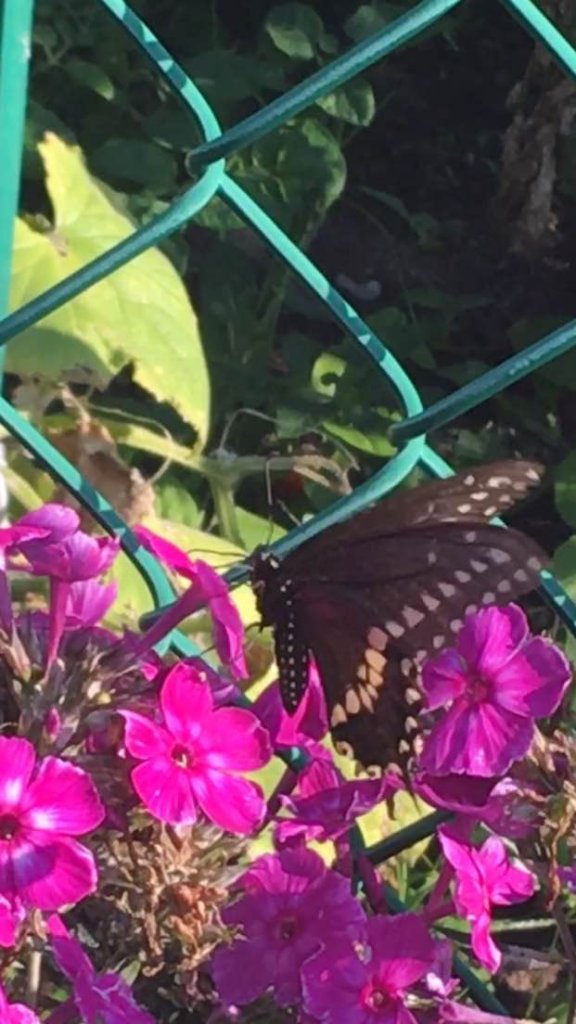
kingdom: Animalia
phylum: Arthropoda
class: Insecta
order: Lepidoptera
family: Papilionidae
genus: Papilio
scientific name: Papilio polyxenes
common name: Black Swallowtail
